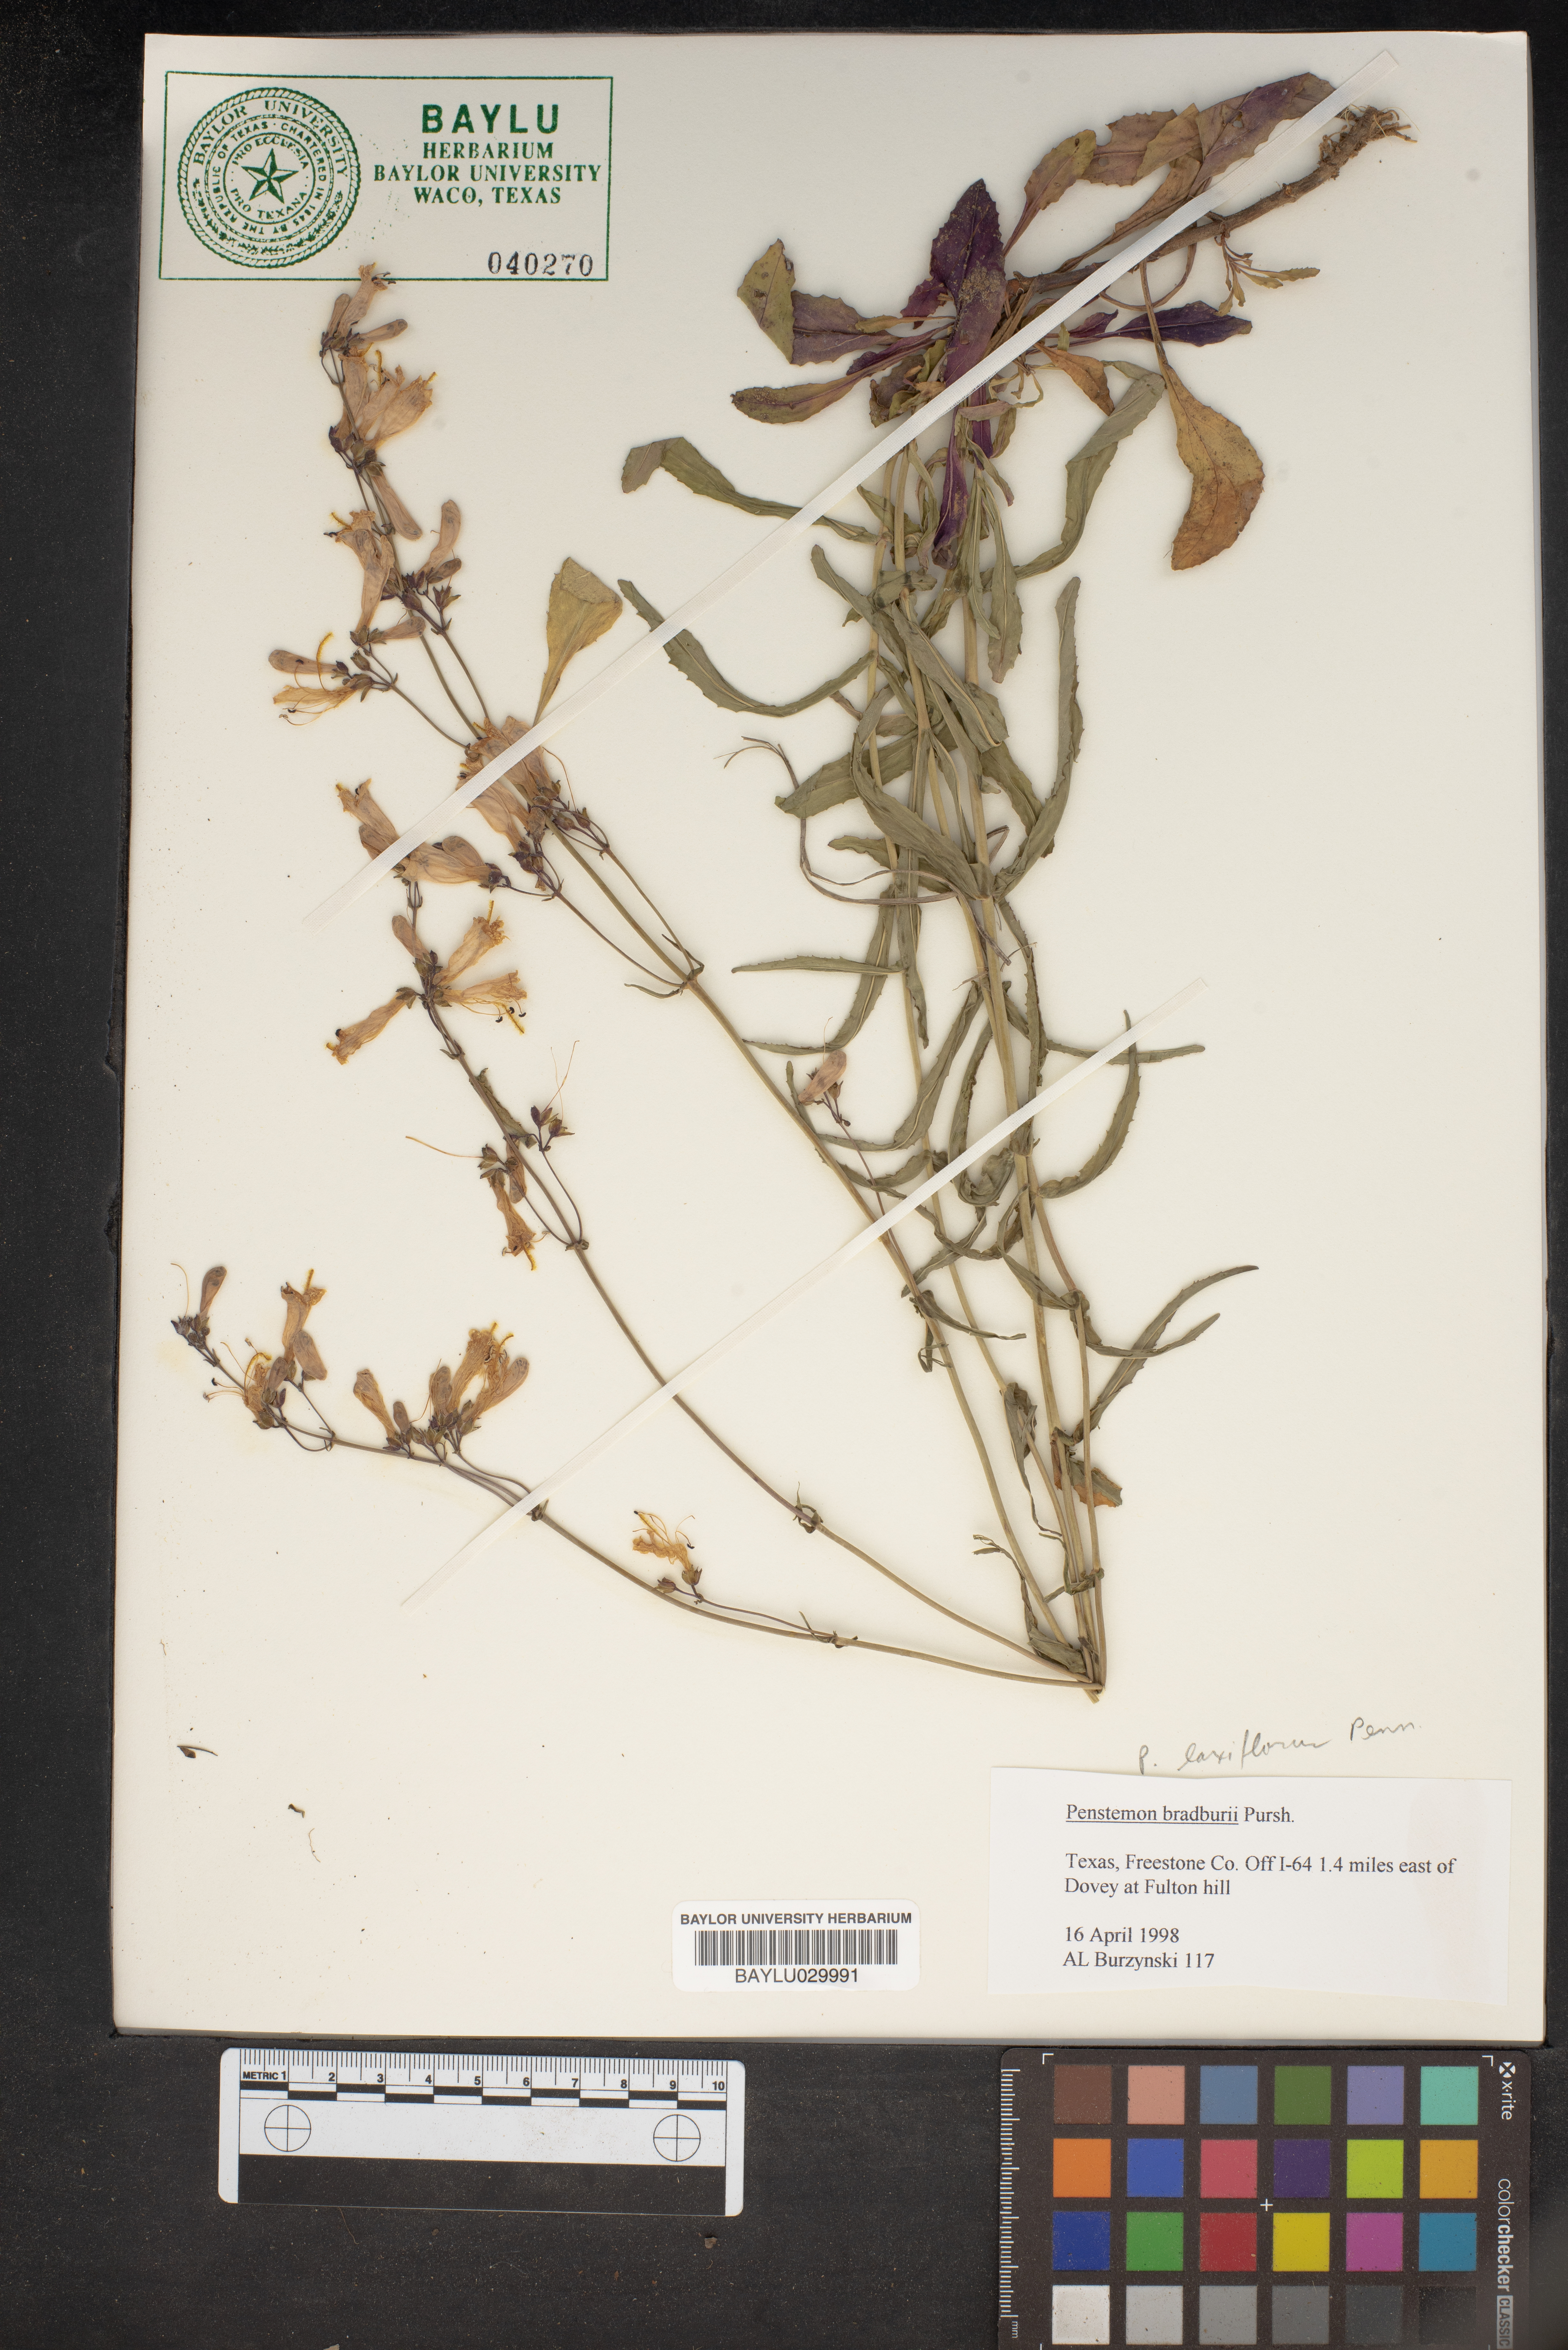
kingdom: Plantae
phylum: Tracheophyta
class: Magnoliopsida
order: Lamiales
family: Plantaginaceae
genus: Penstemon
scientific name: Penstemon bradburyi
